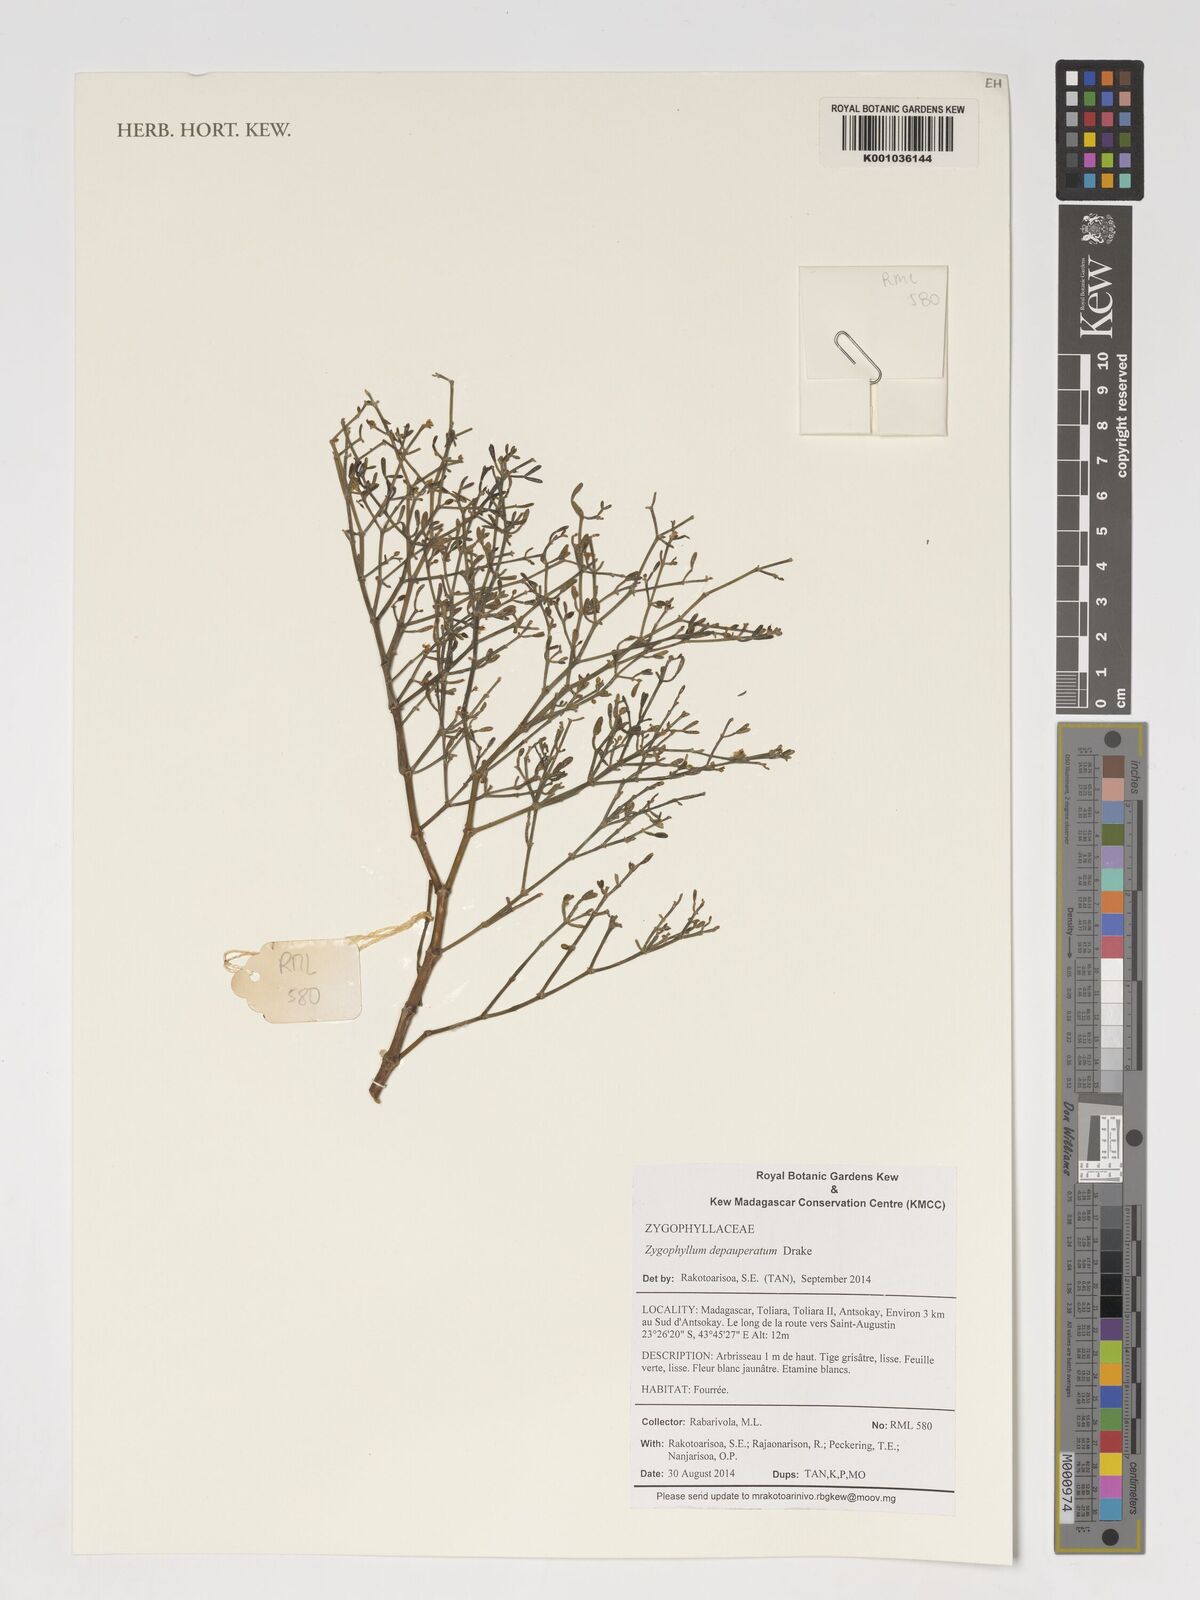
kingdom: Plantae
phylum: Tracheophyta
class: Magnoliopsida
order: Zygophyllales
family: Zygophyllaceae
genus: Tetraena
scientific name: Tetraena madagascariensis
